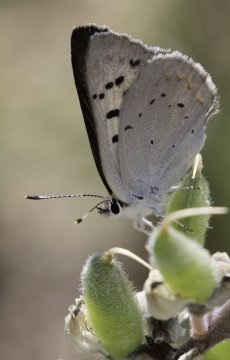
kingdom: Animalia
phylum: Arthropoda
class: Insecta
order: Lepidoptera
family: Lycaenidae
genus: Lycaena
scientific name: Lycaena nivalis
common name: Lilac-bordered Copper
